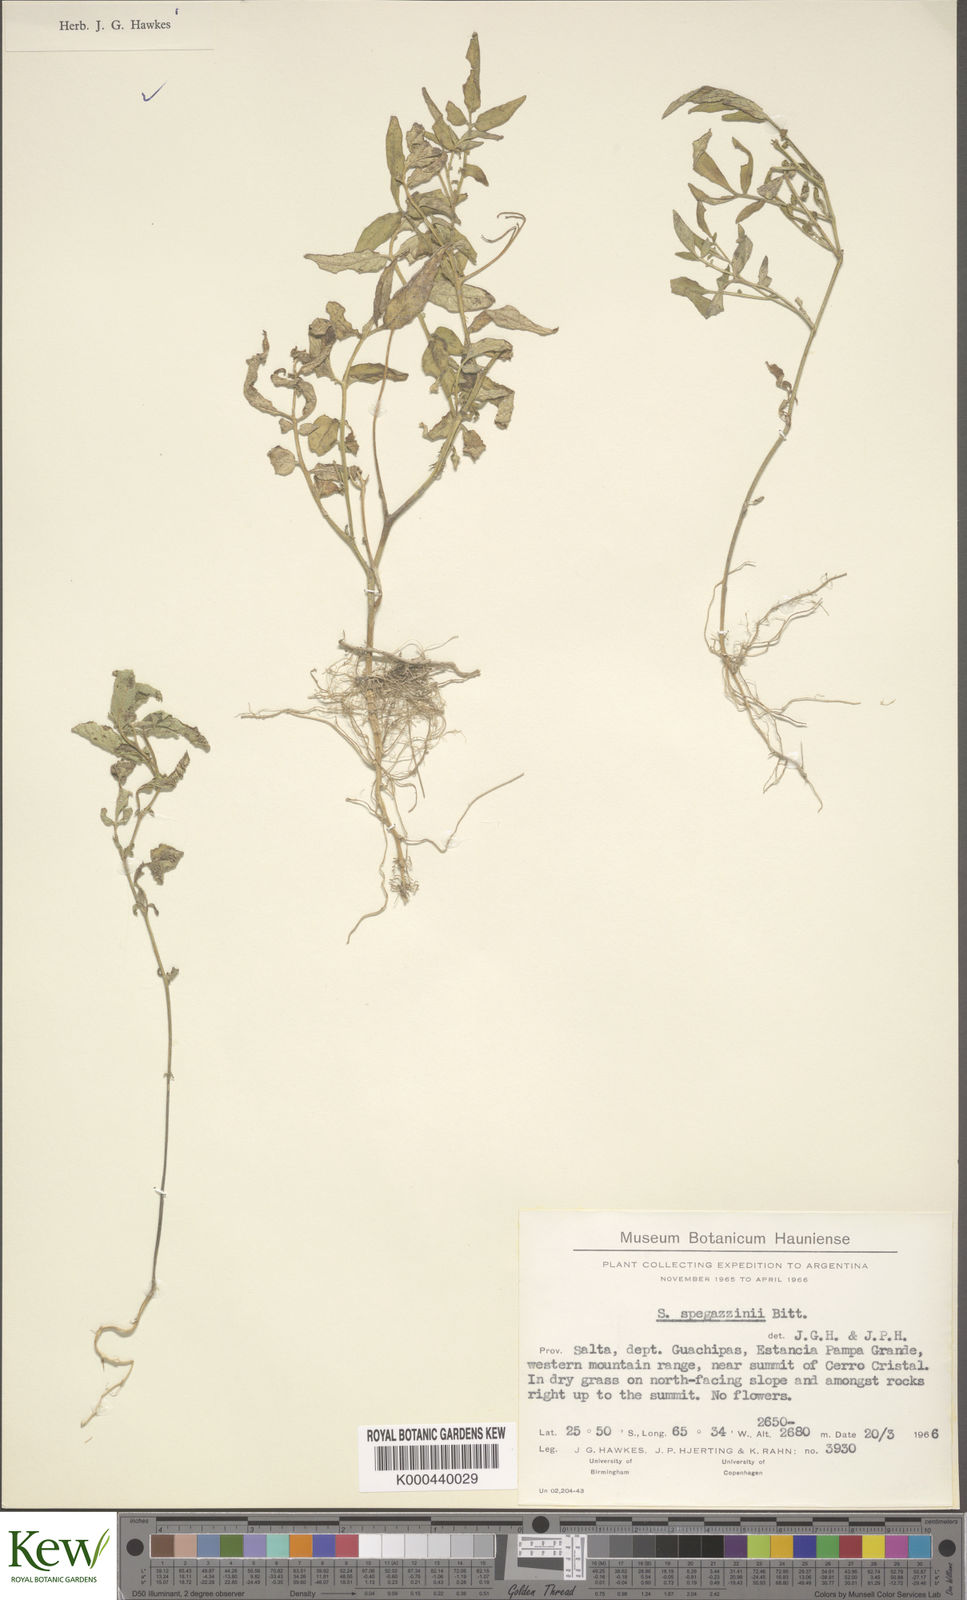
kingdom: Plantae
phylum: Tracheophyta
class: Magnoliopsida
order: Solanales
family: Solanaceae
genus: Solanum
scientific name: Solanum brevicaule
